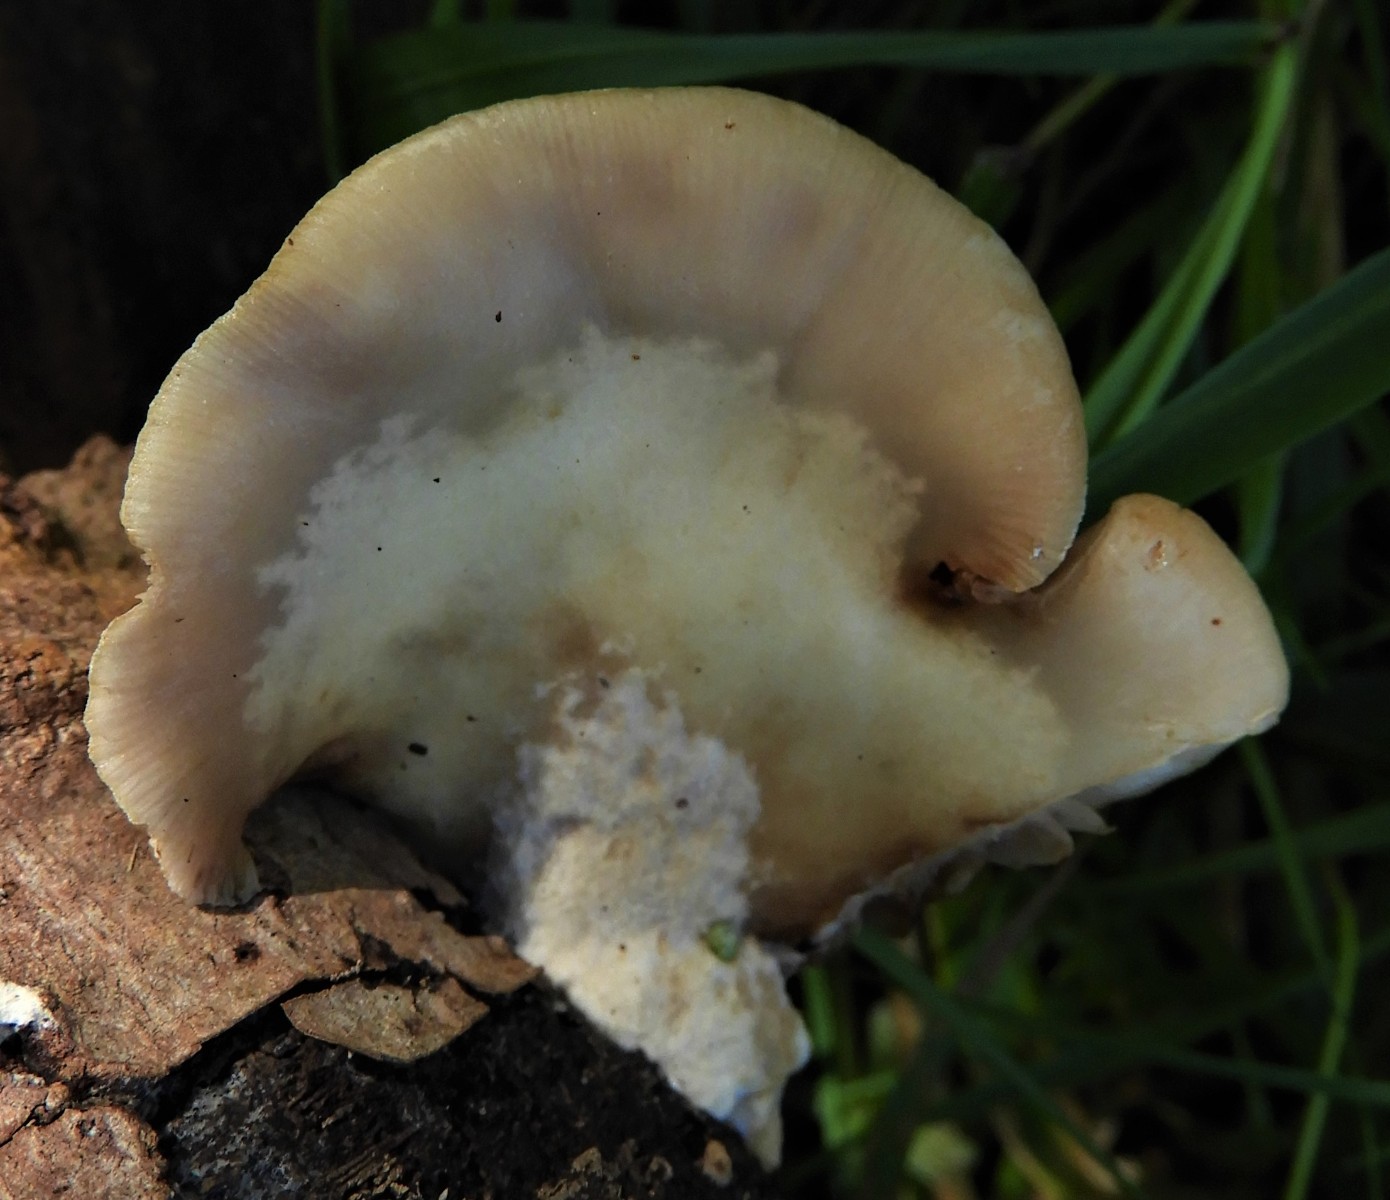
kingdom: Fungi
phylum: Basidiomycota
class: Agaricomycetes
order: Agaricales
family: Crepidotaceae
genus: Crepidotus
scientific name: Crepidotus mollis
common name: blød muslingesvamp
